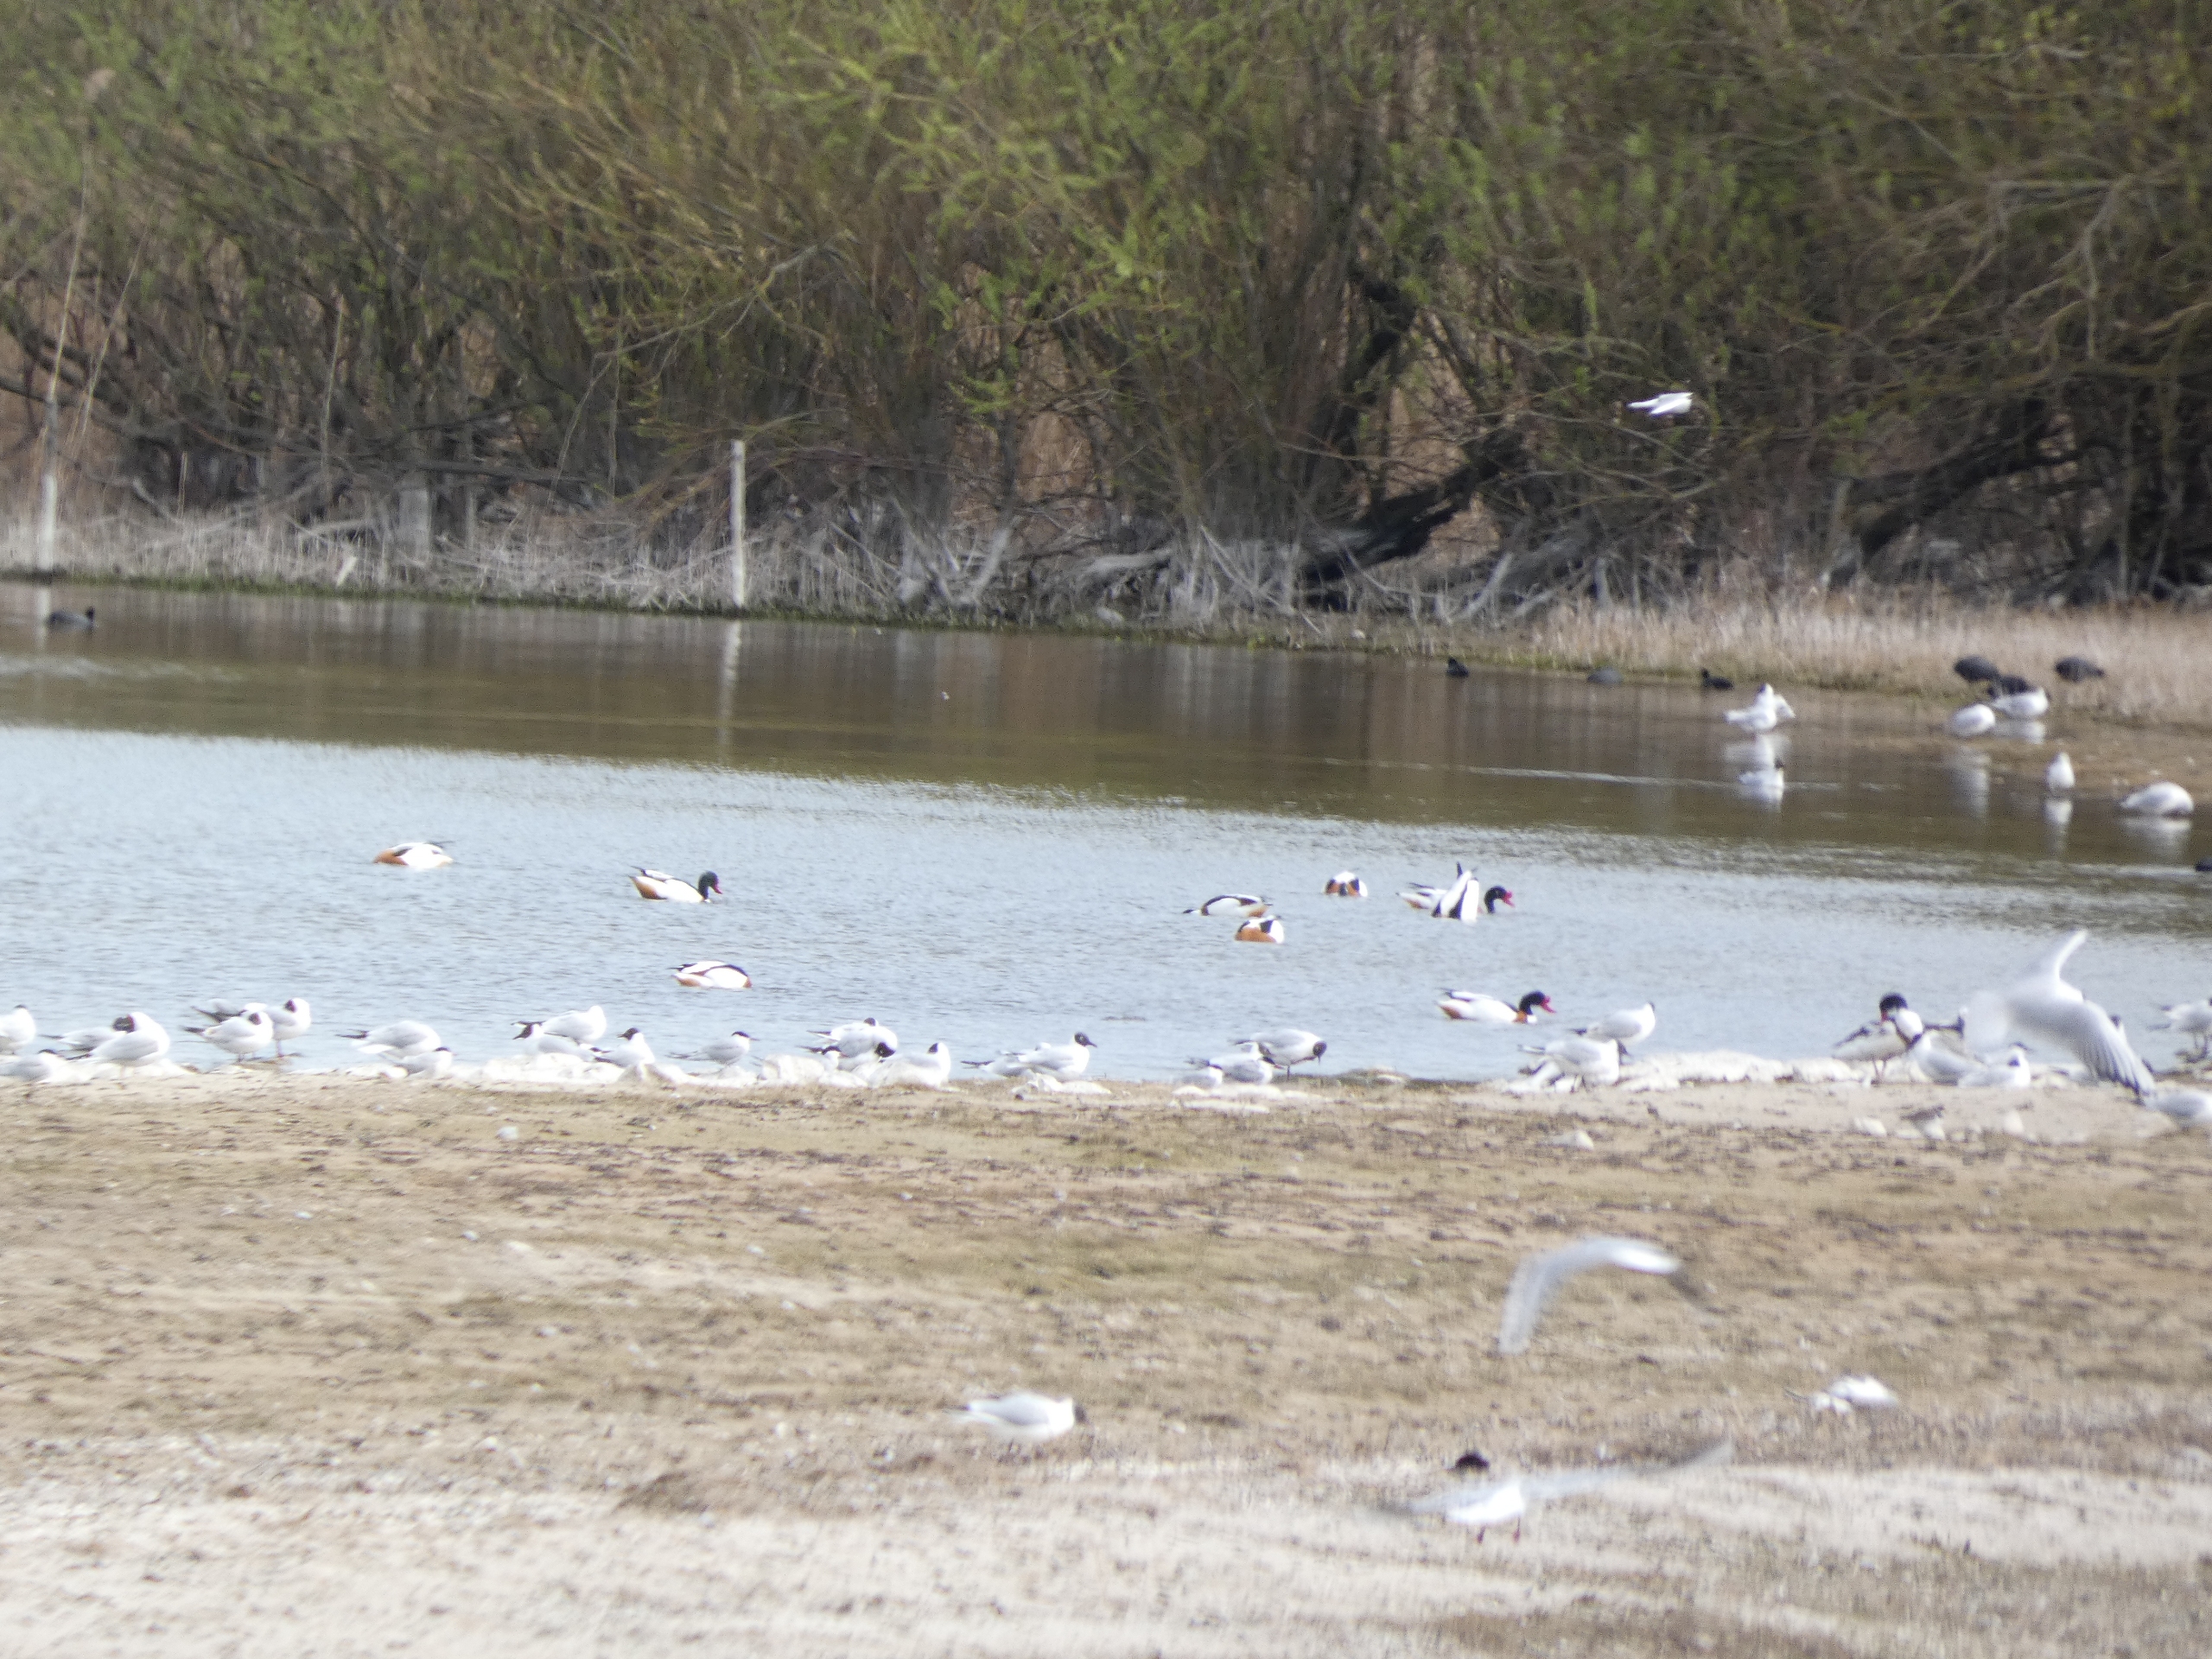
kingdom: Animalia
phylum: Chordata
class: Aves
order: Anseriformes
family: Anatidae
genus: Tadorna
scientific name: Tadorna tadorna
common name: Gravand
